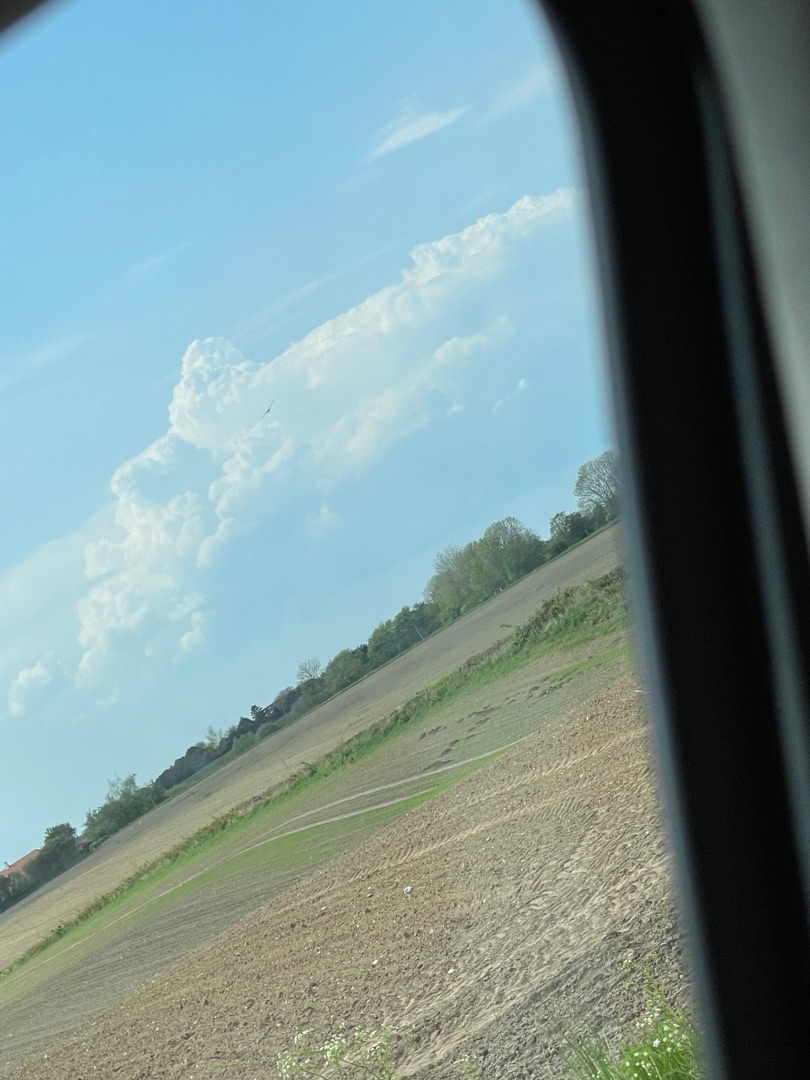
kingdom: Animalia
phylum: Chordata
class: Aves
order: Accipitriformes
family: Accipitridae
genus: Milvus
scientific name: Milvus milvus
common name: Rød glente
